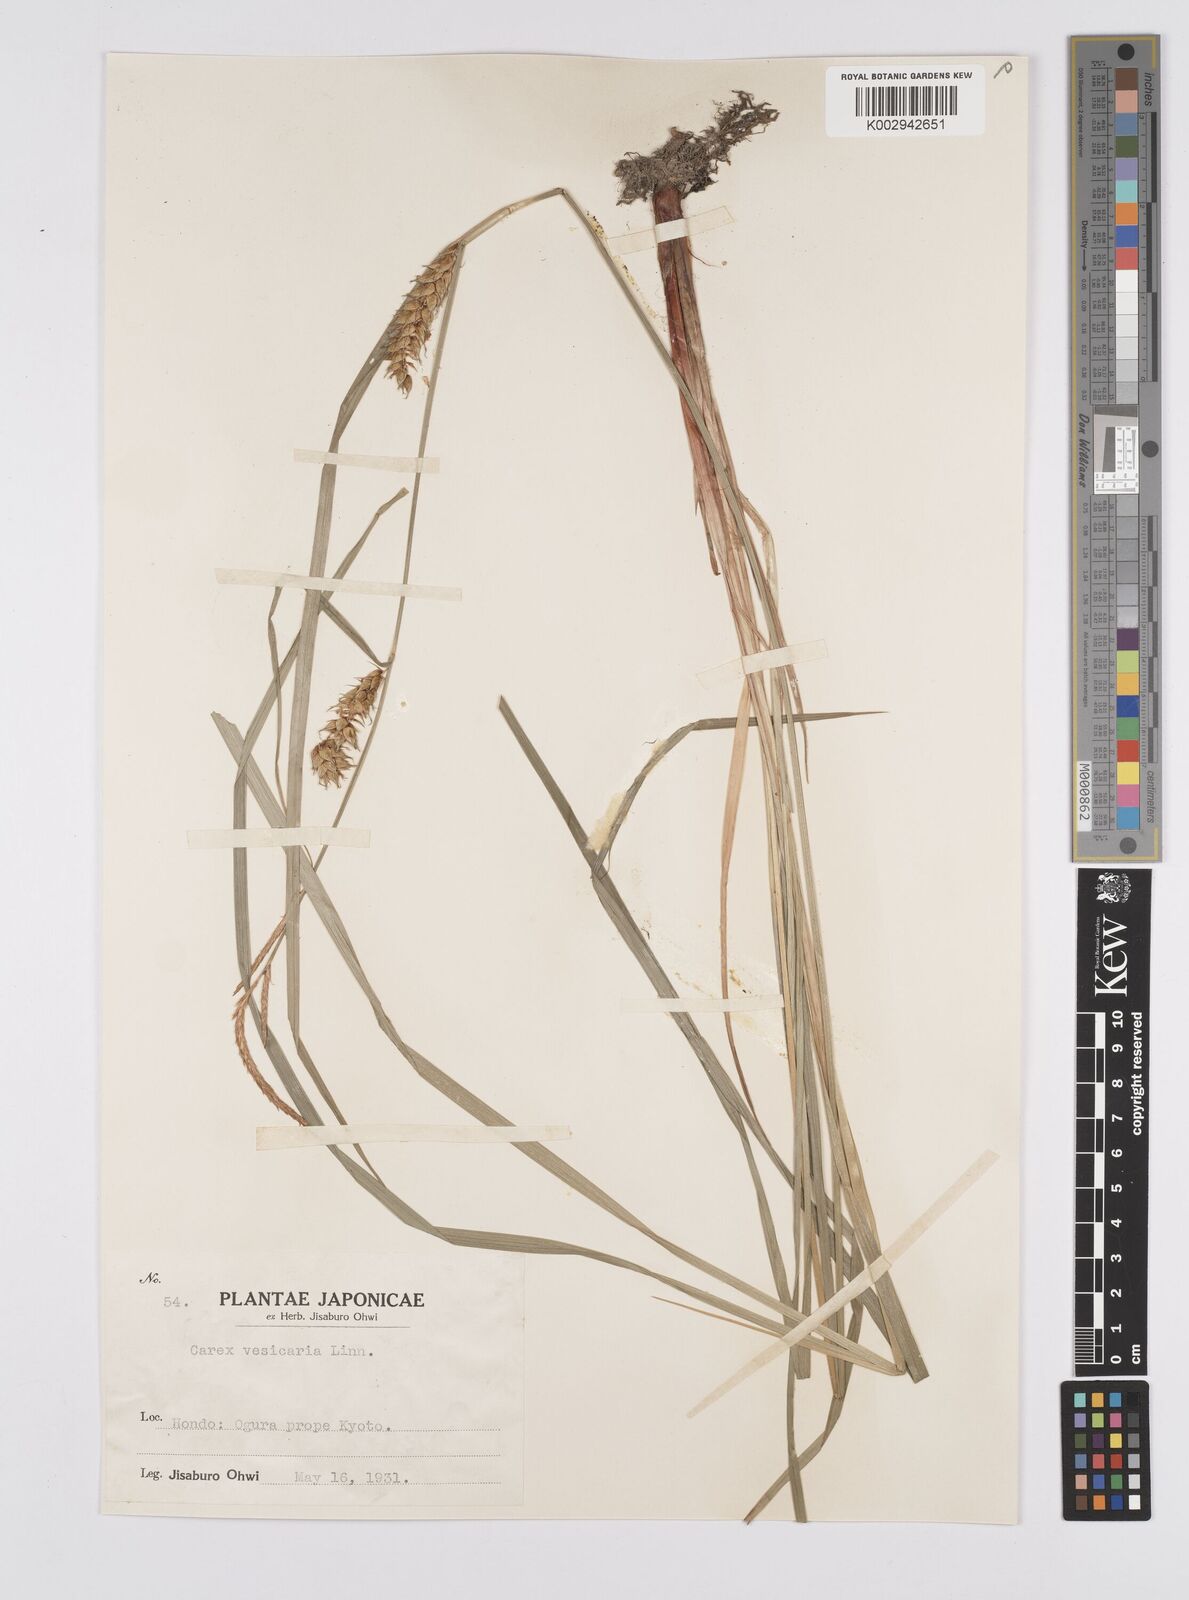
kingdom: Plantae
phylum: Tracheophyta
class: Liliopsida
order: Poales
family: Cyperaceae
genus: Carex
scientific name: Carex vesicaria
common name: Bladder-sedge
